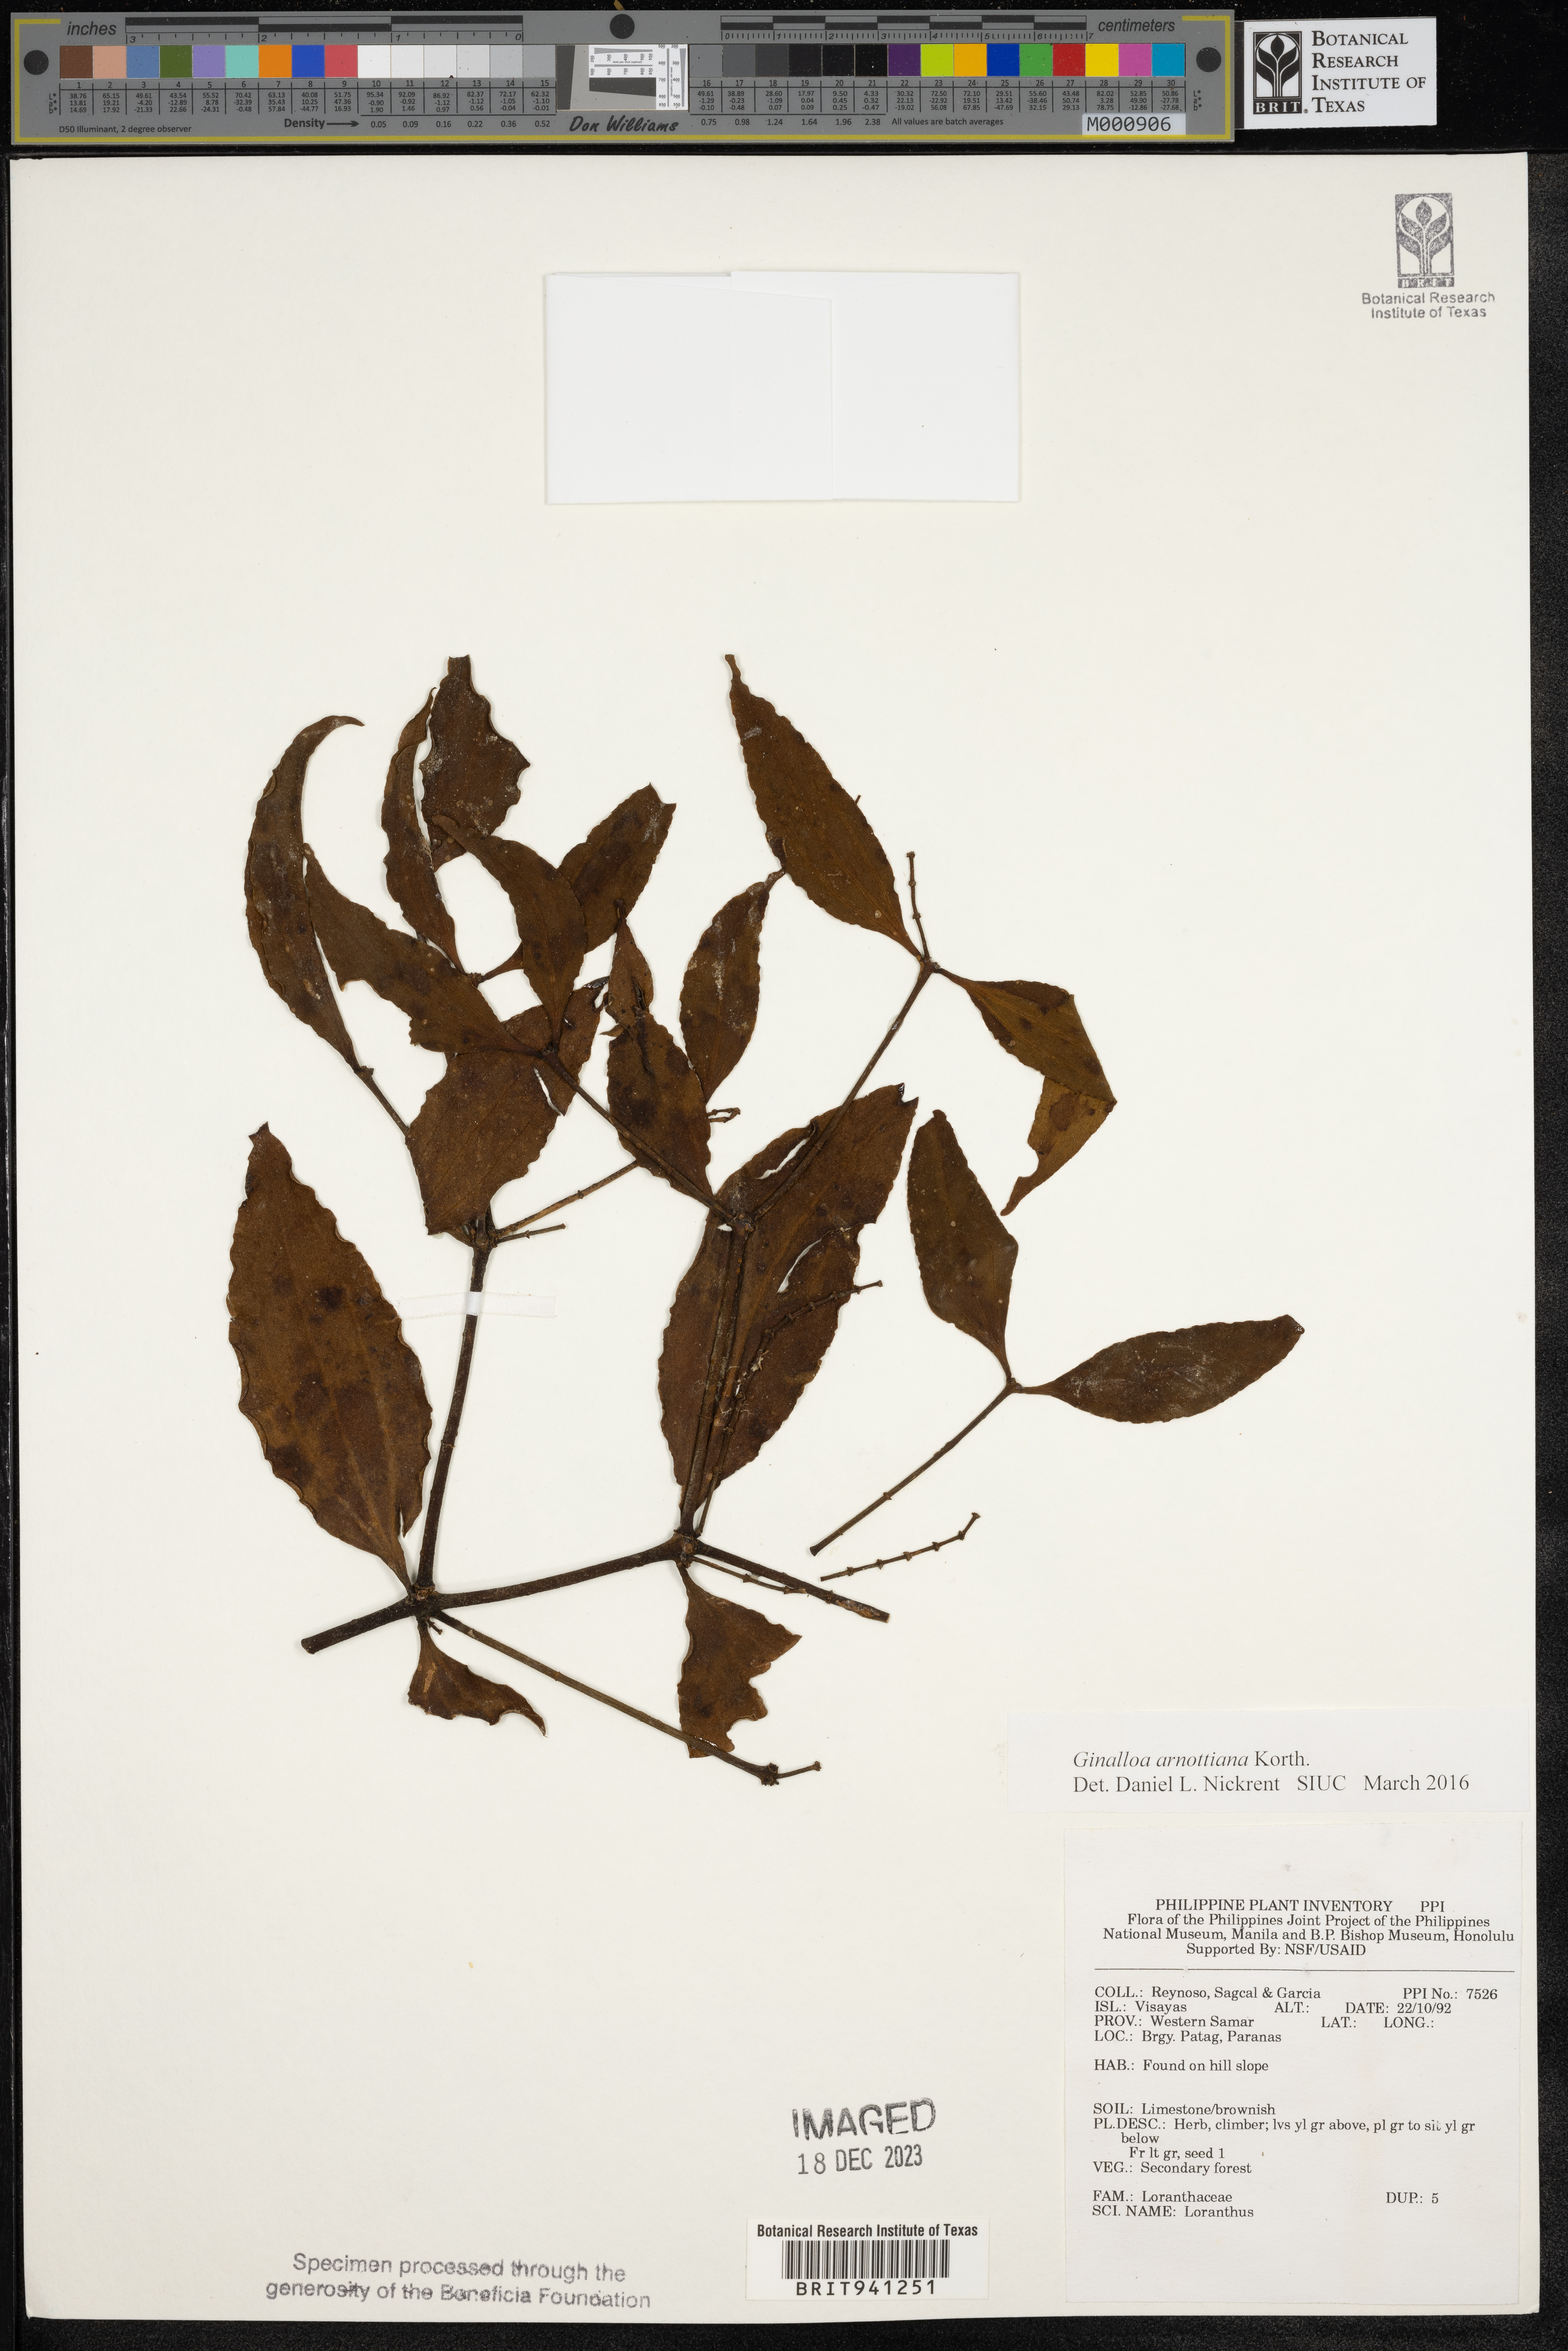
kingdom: Plantae
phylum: Tracheophyta
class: Magnoliopsida
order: Santalales
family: Viscaceae
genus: Ginalloa
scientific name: Ginalloa
